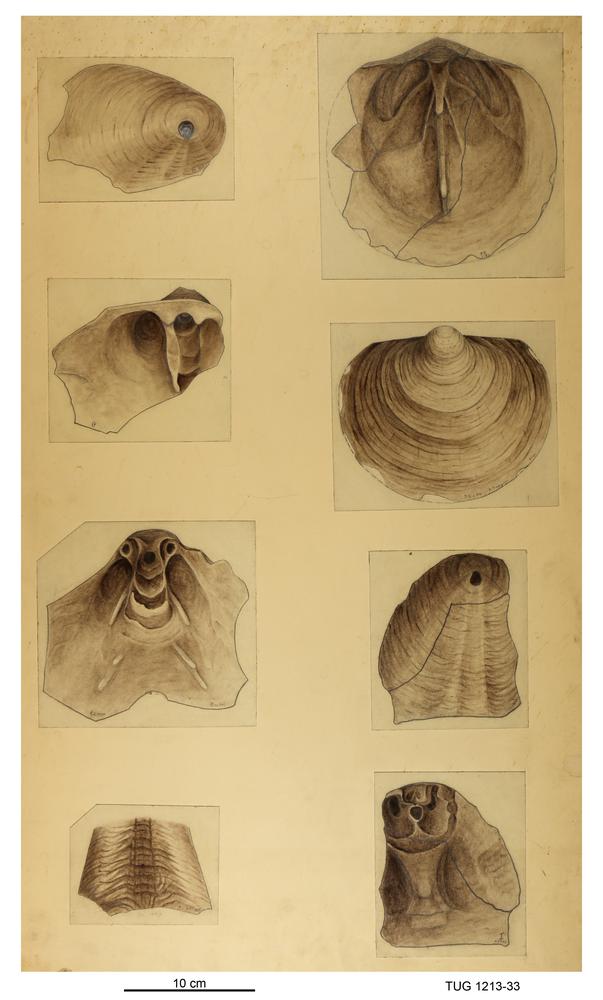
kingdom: Animalia
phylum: Brachiopoda
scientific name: Brachiopoda
